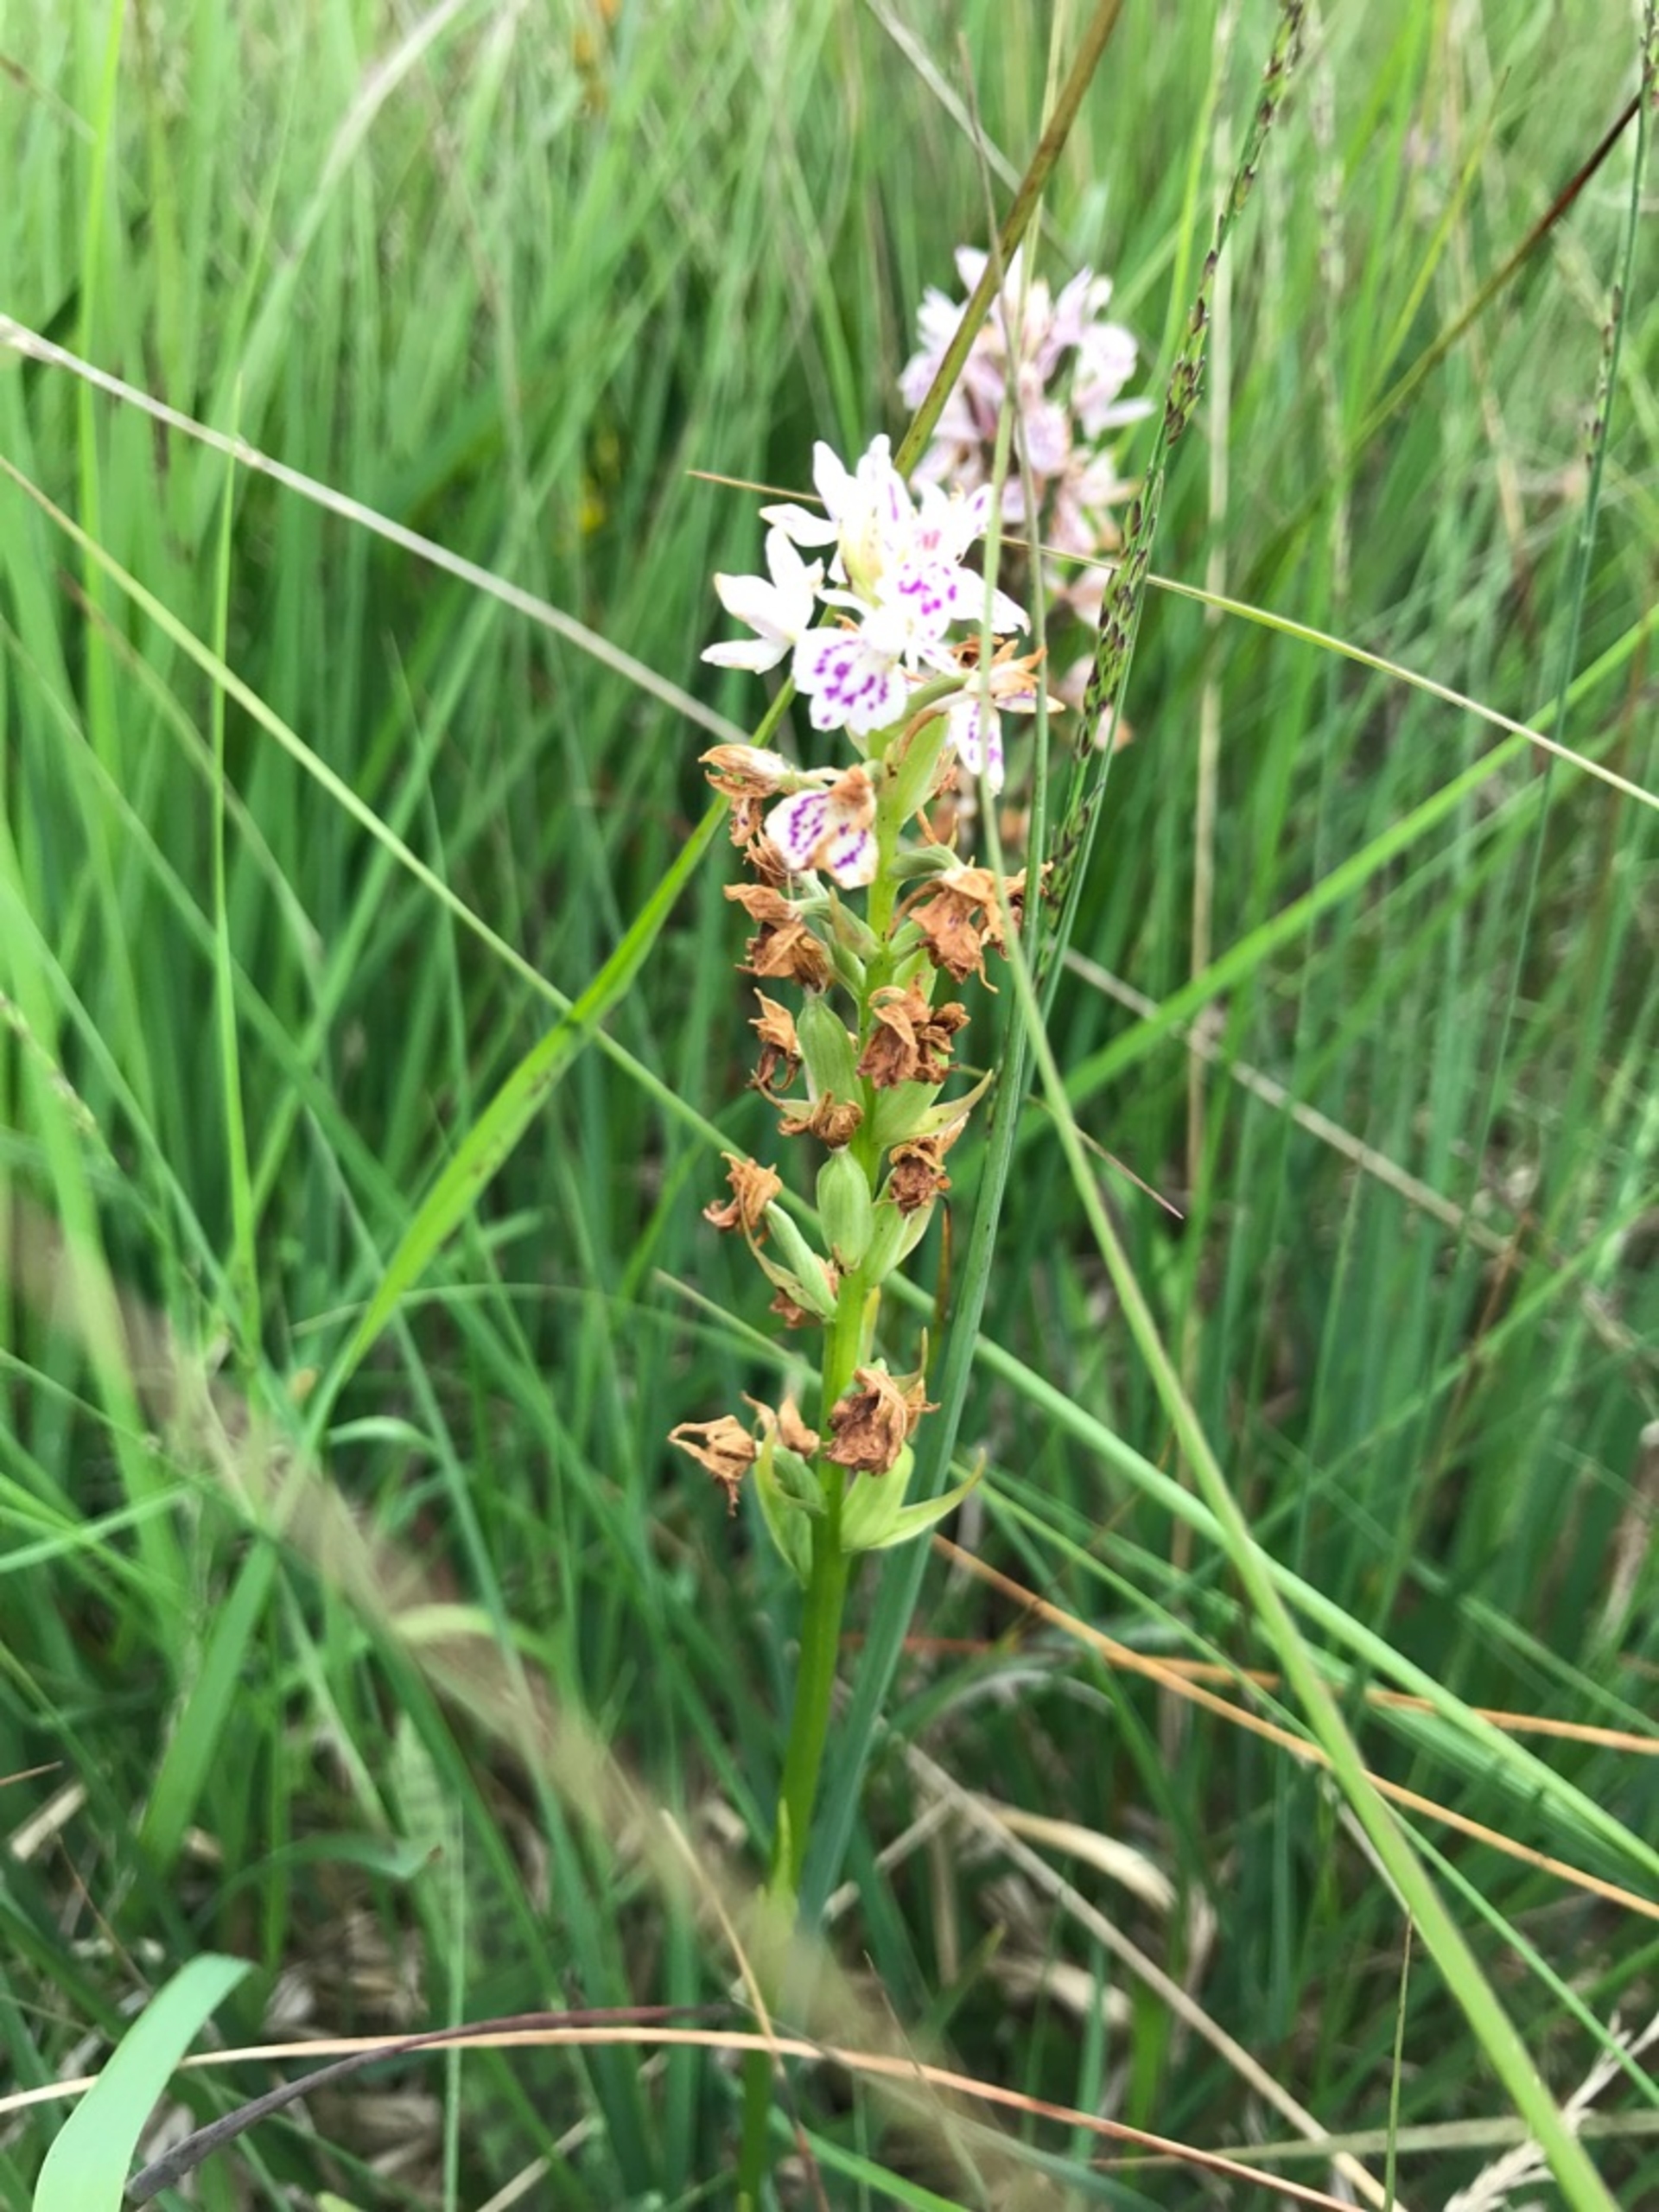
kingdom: Plantae
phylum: Tracheophyta
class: Liliopsida
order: Asparagales
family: Orchidaceae
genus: Dactylorhiza
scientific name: Dactylorhiza maculata
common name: Plettet gøgeurt
